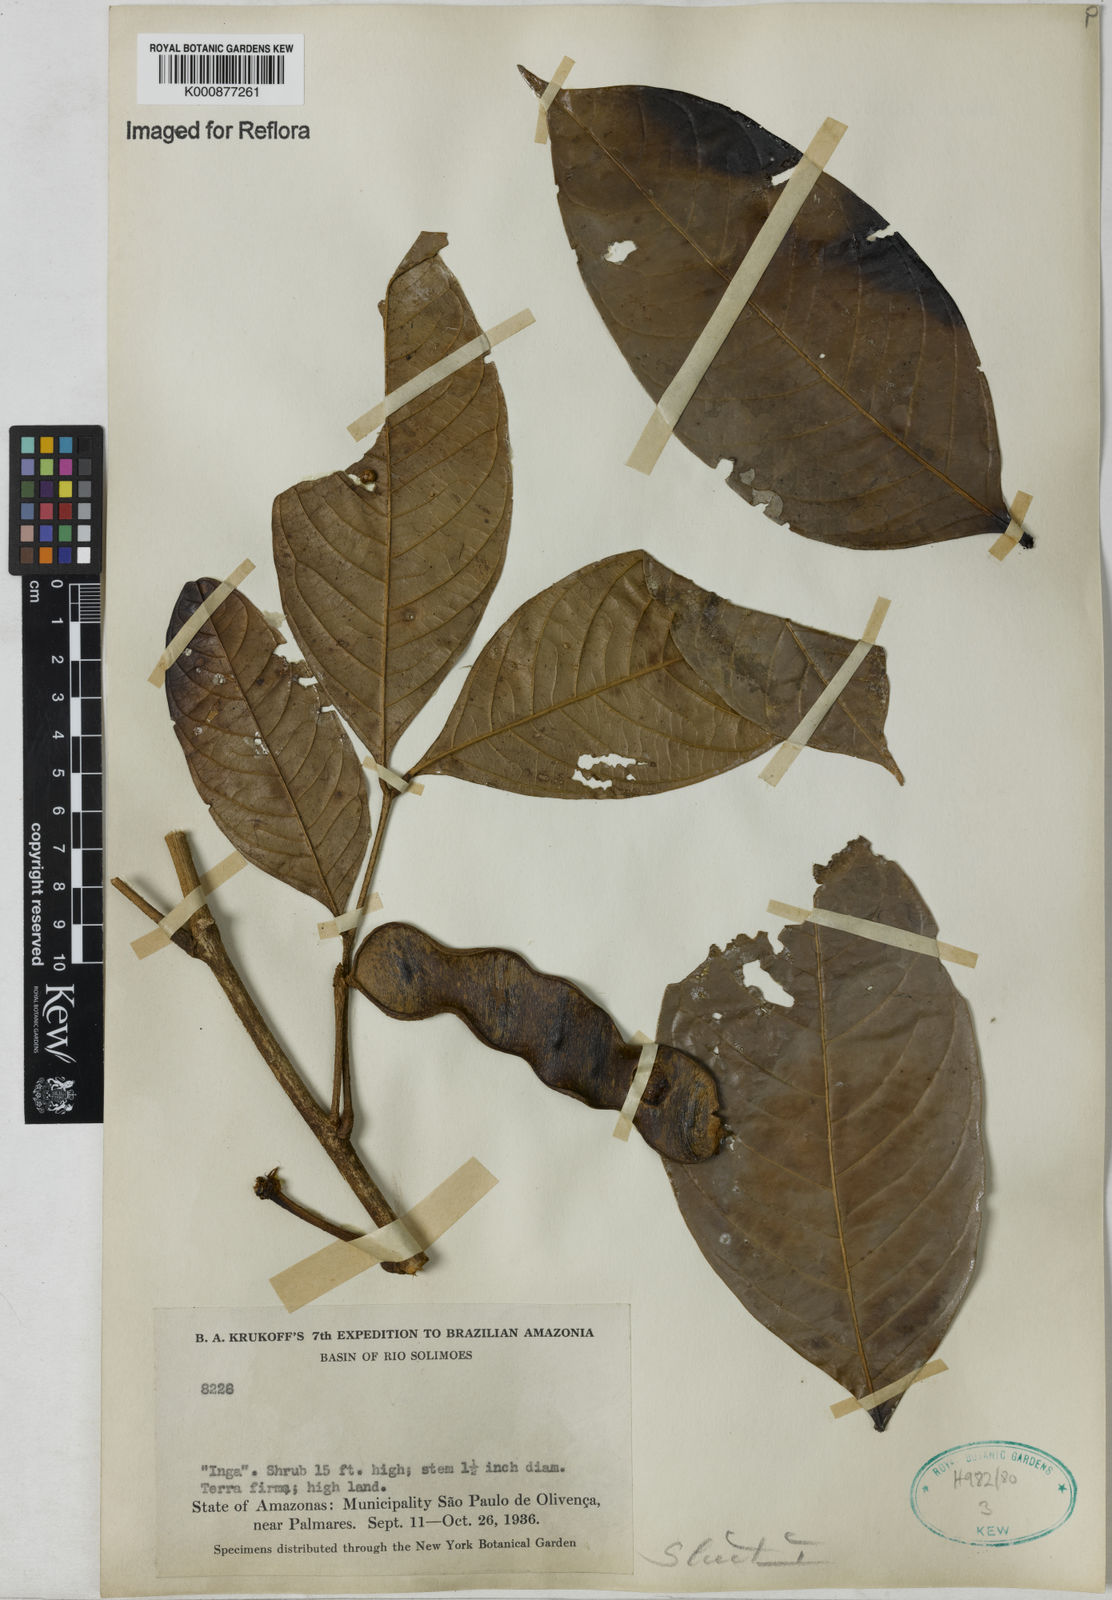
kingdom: Plantae
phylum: Tracheophyta
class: Magnoliopsida
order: Fabales
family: Fabaceae
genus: Inga
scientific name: Inga
